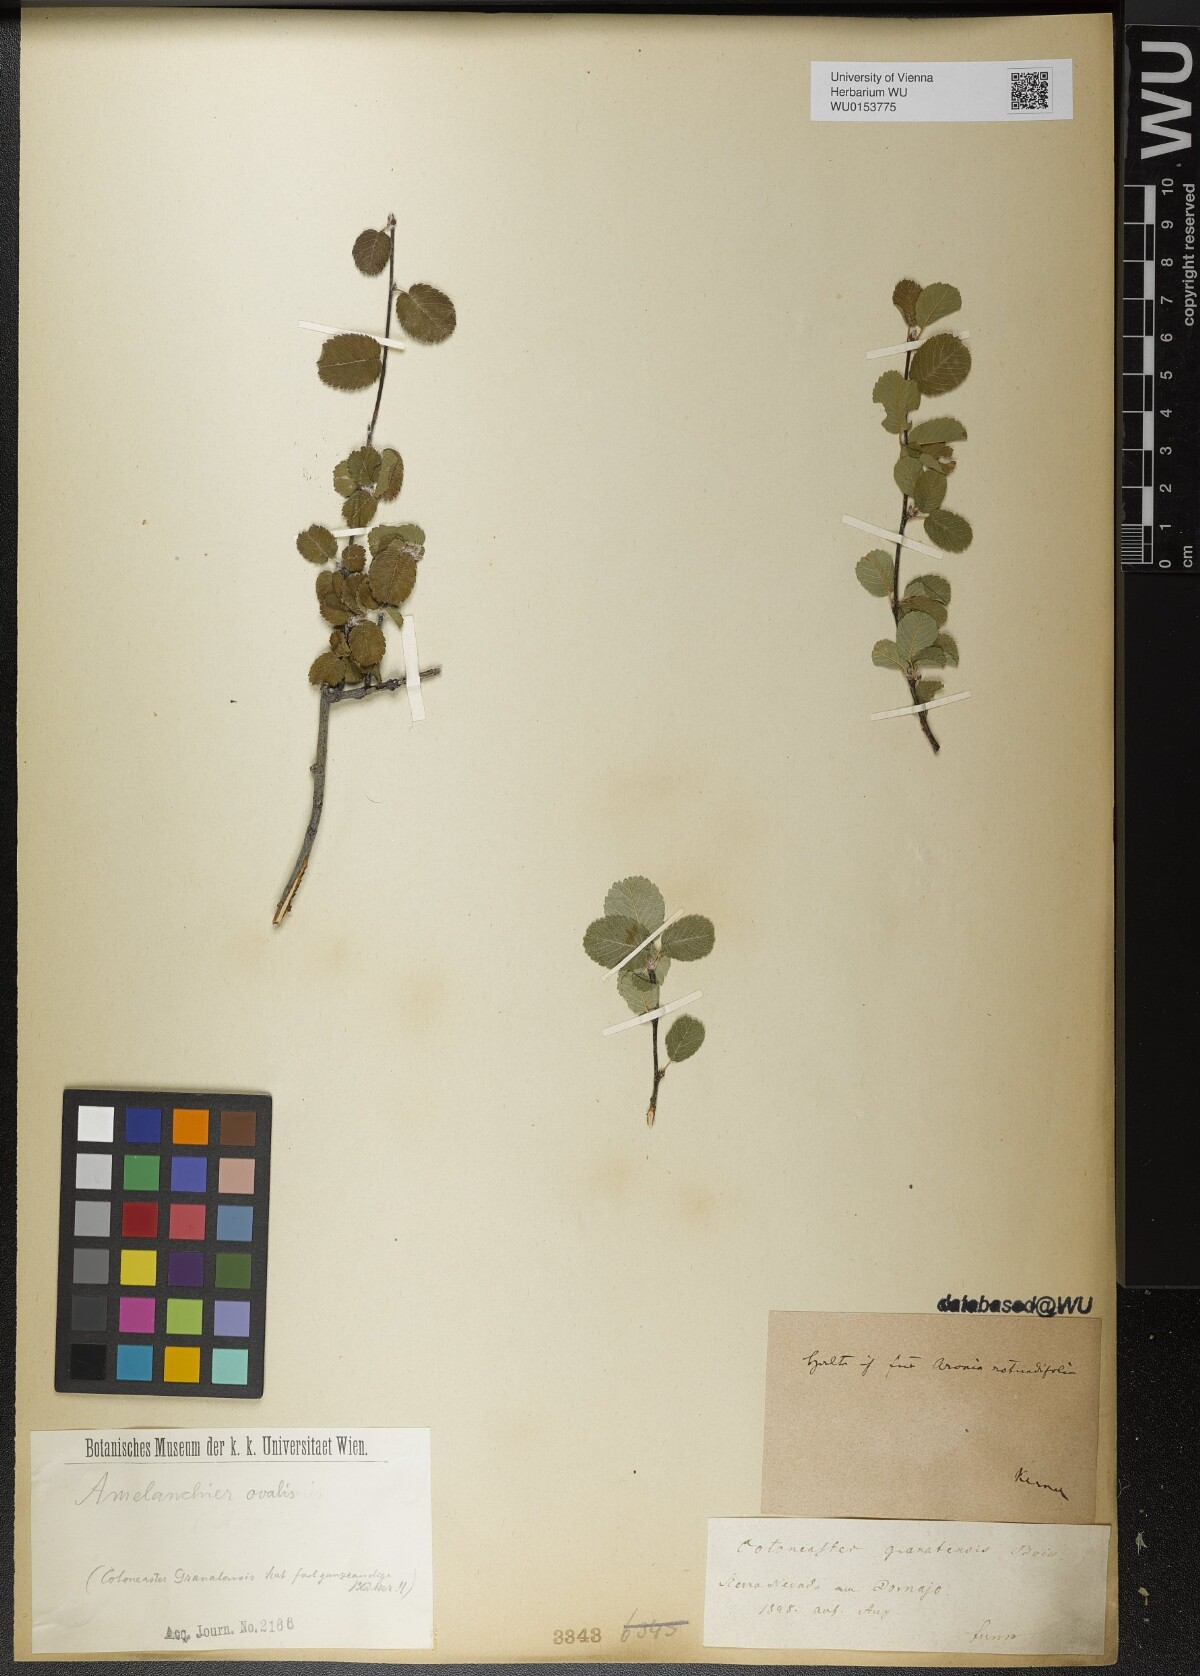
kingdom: Plantae
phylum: Tracheophyta
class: Magnoliopsida
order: Rosales
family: Rosaceae
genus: Amelanchier
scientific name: Amelanchier ovalis
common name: Serviceberry
